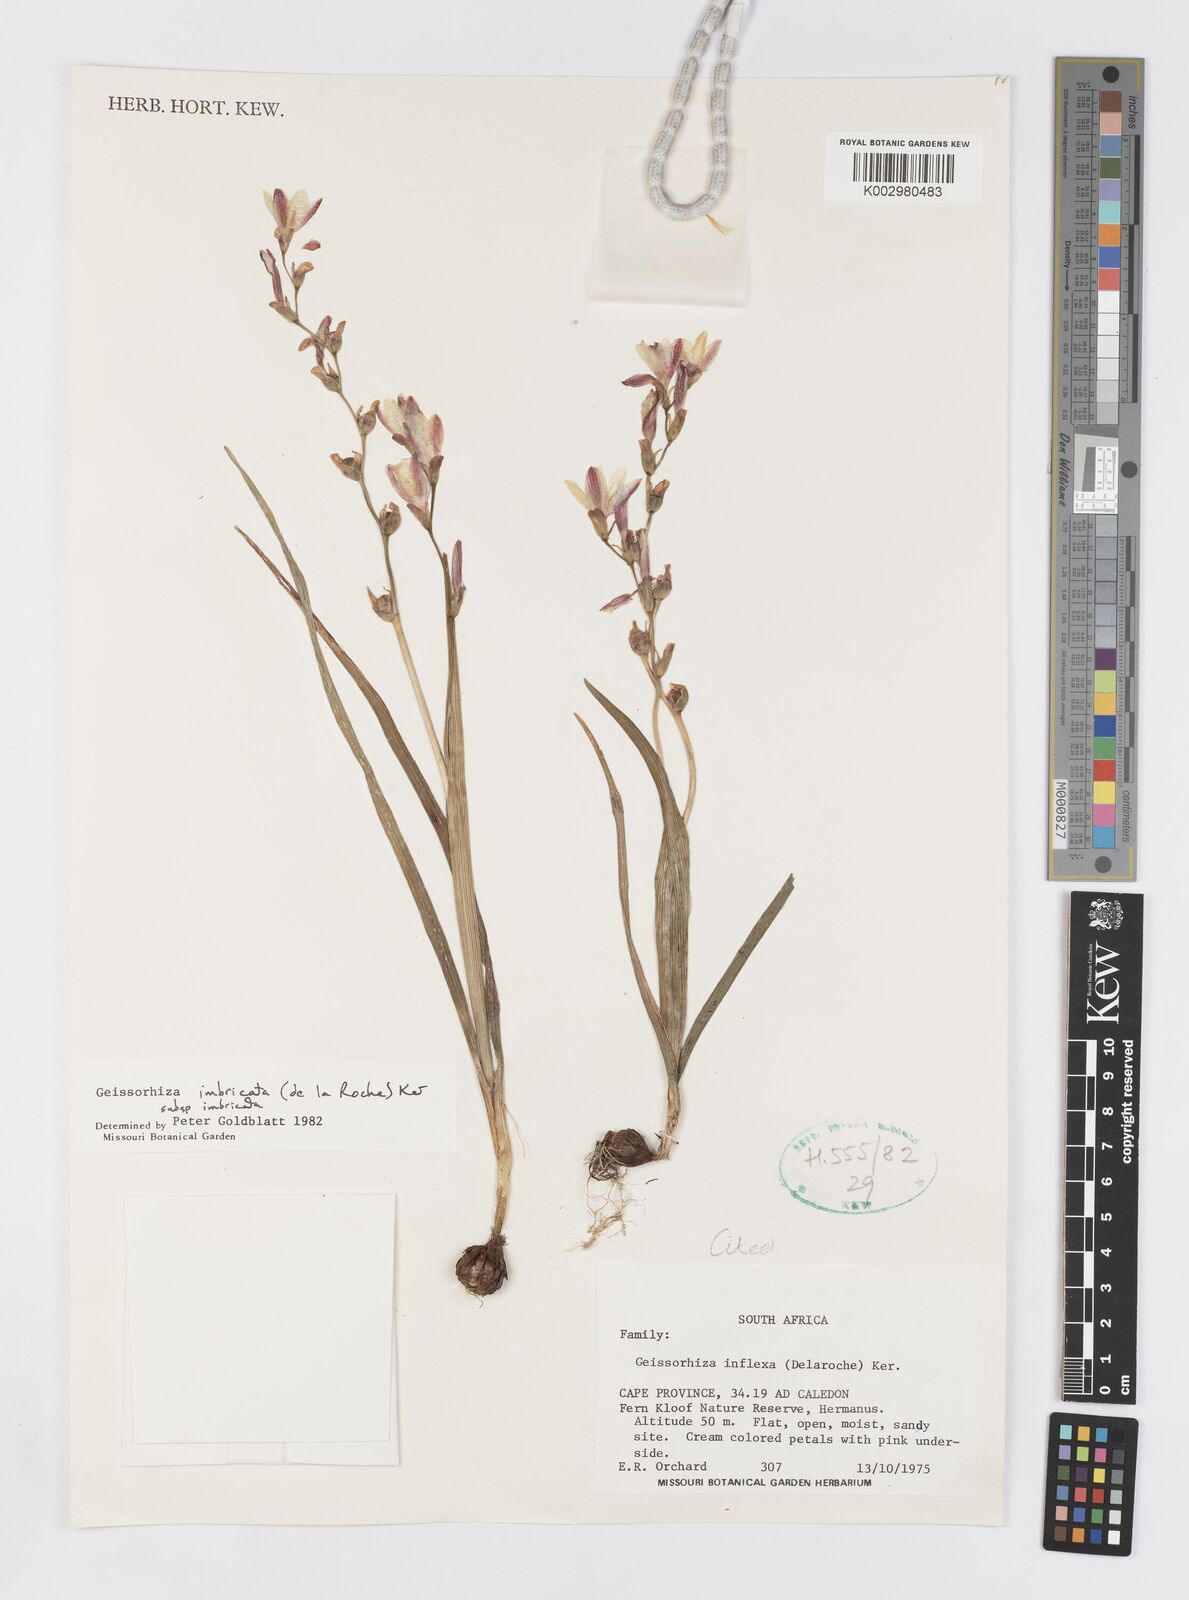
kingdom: Plantae
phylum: Tracheophyta
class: Liliopsida
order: Asparagales
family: Iridaceae
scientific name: Iridaceae
